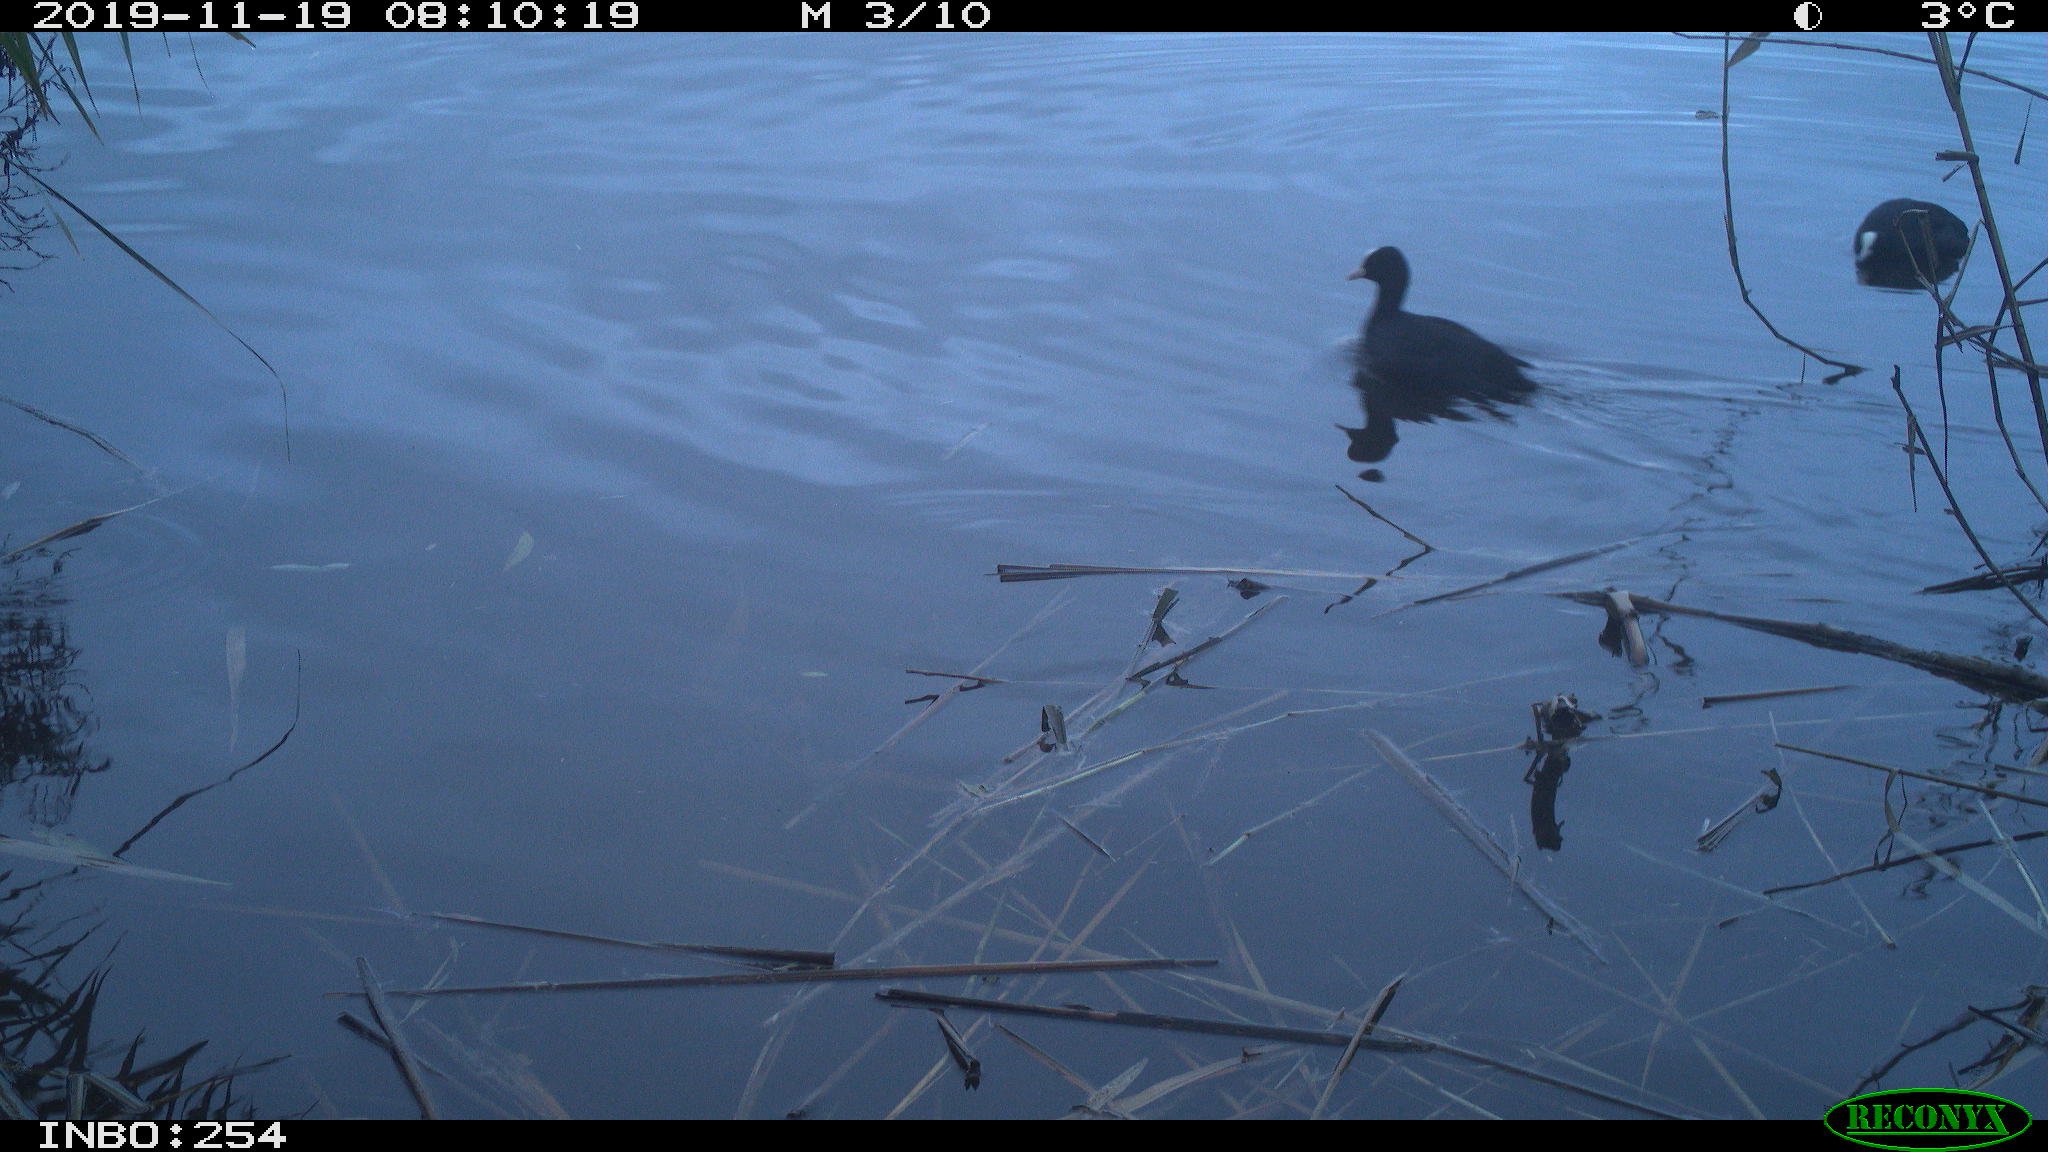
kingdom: Animalia
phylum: Chordata
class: Aves
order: Gruiformes
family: Rallidae
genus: Fulica
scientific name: Fulica atra
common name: Eurasian coot
